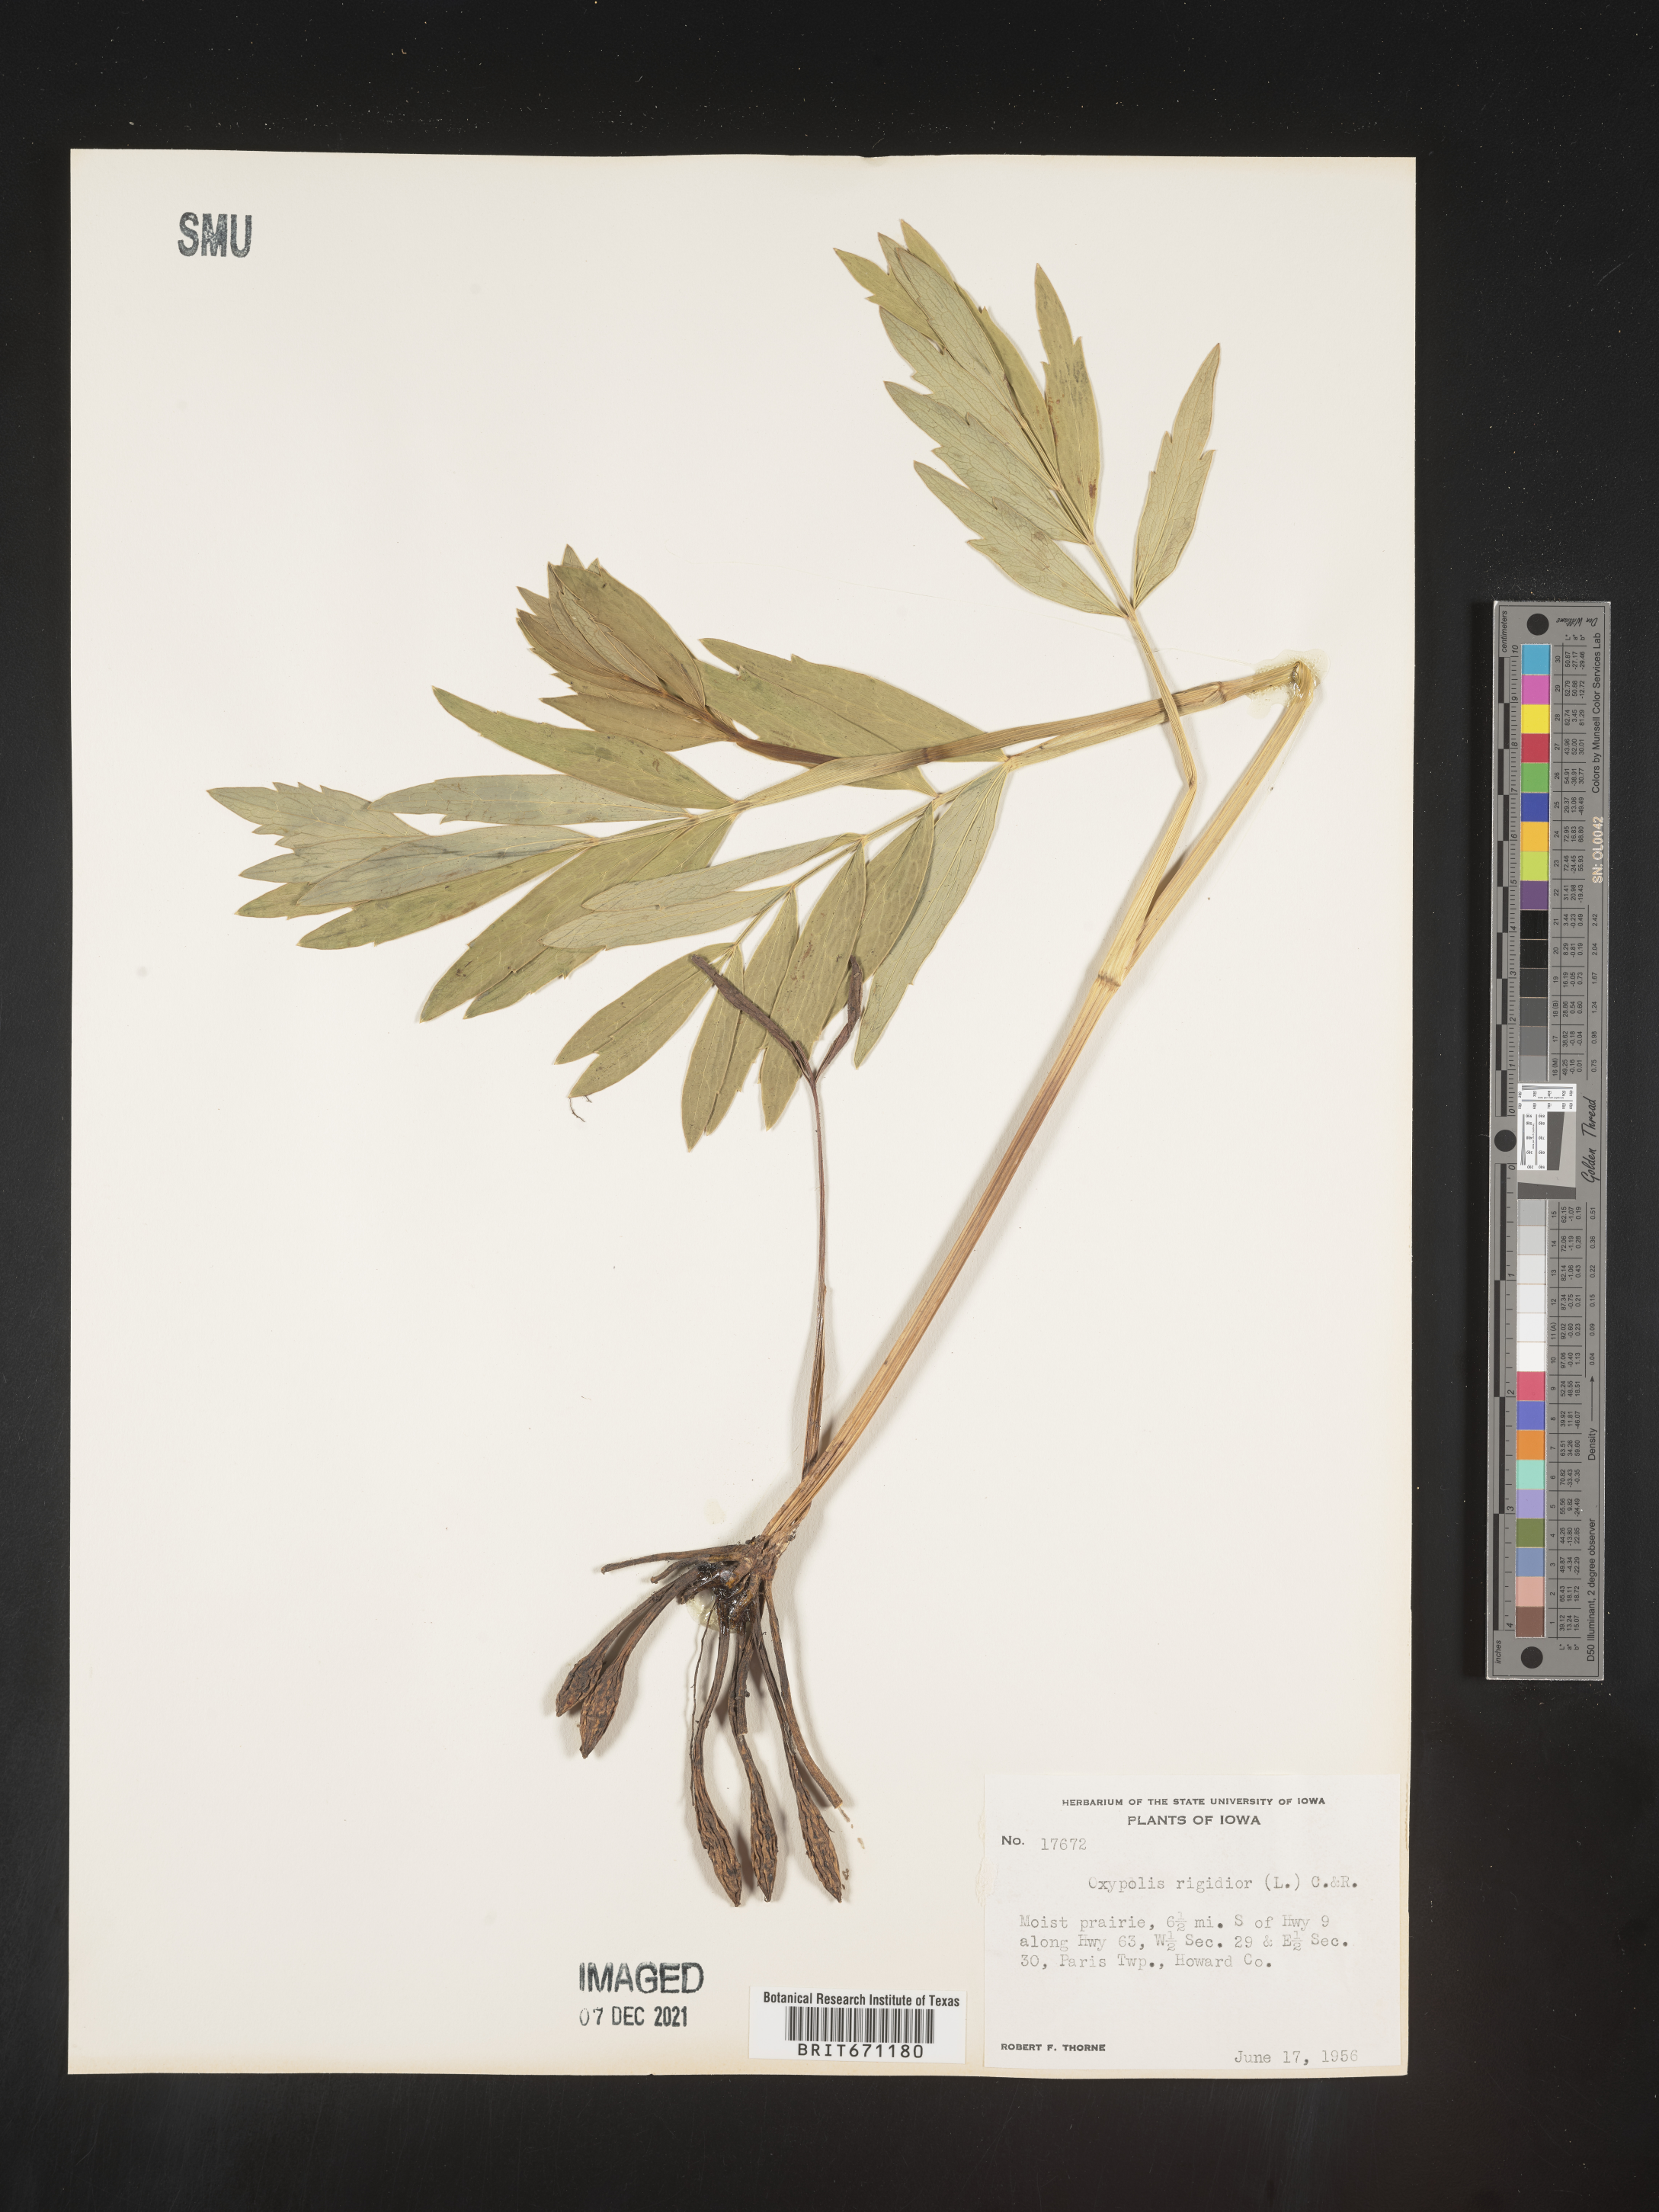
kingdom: Plantae
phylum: Tracheophyta
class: Magnoliopsida
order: Apiales
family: Apiaceae
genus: Oxypolis
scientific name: Oxypolis rigidior
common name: Cowbane
